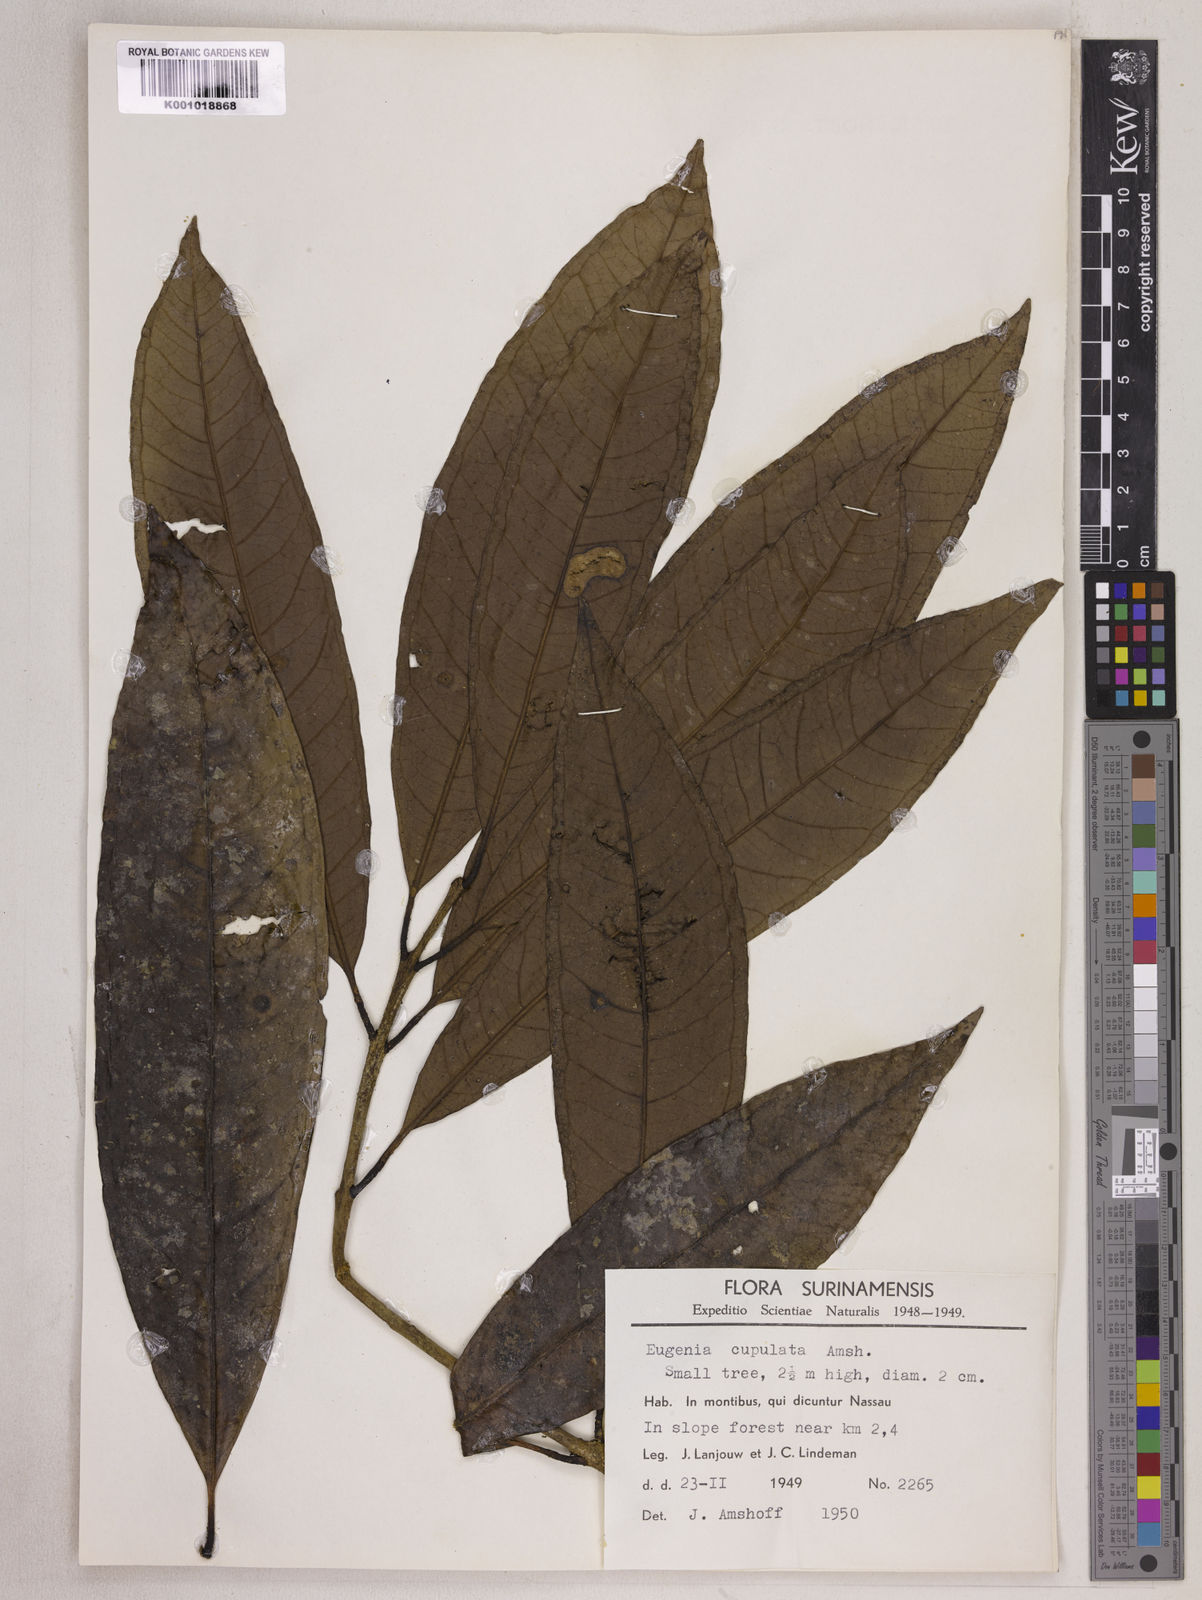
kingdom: Plantae
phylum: Tracheophyta
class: Magnoliopsida
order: Myrtales
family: Myrtaceae
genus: Eugenia
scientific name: Eugenia cupulata
